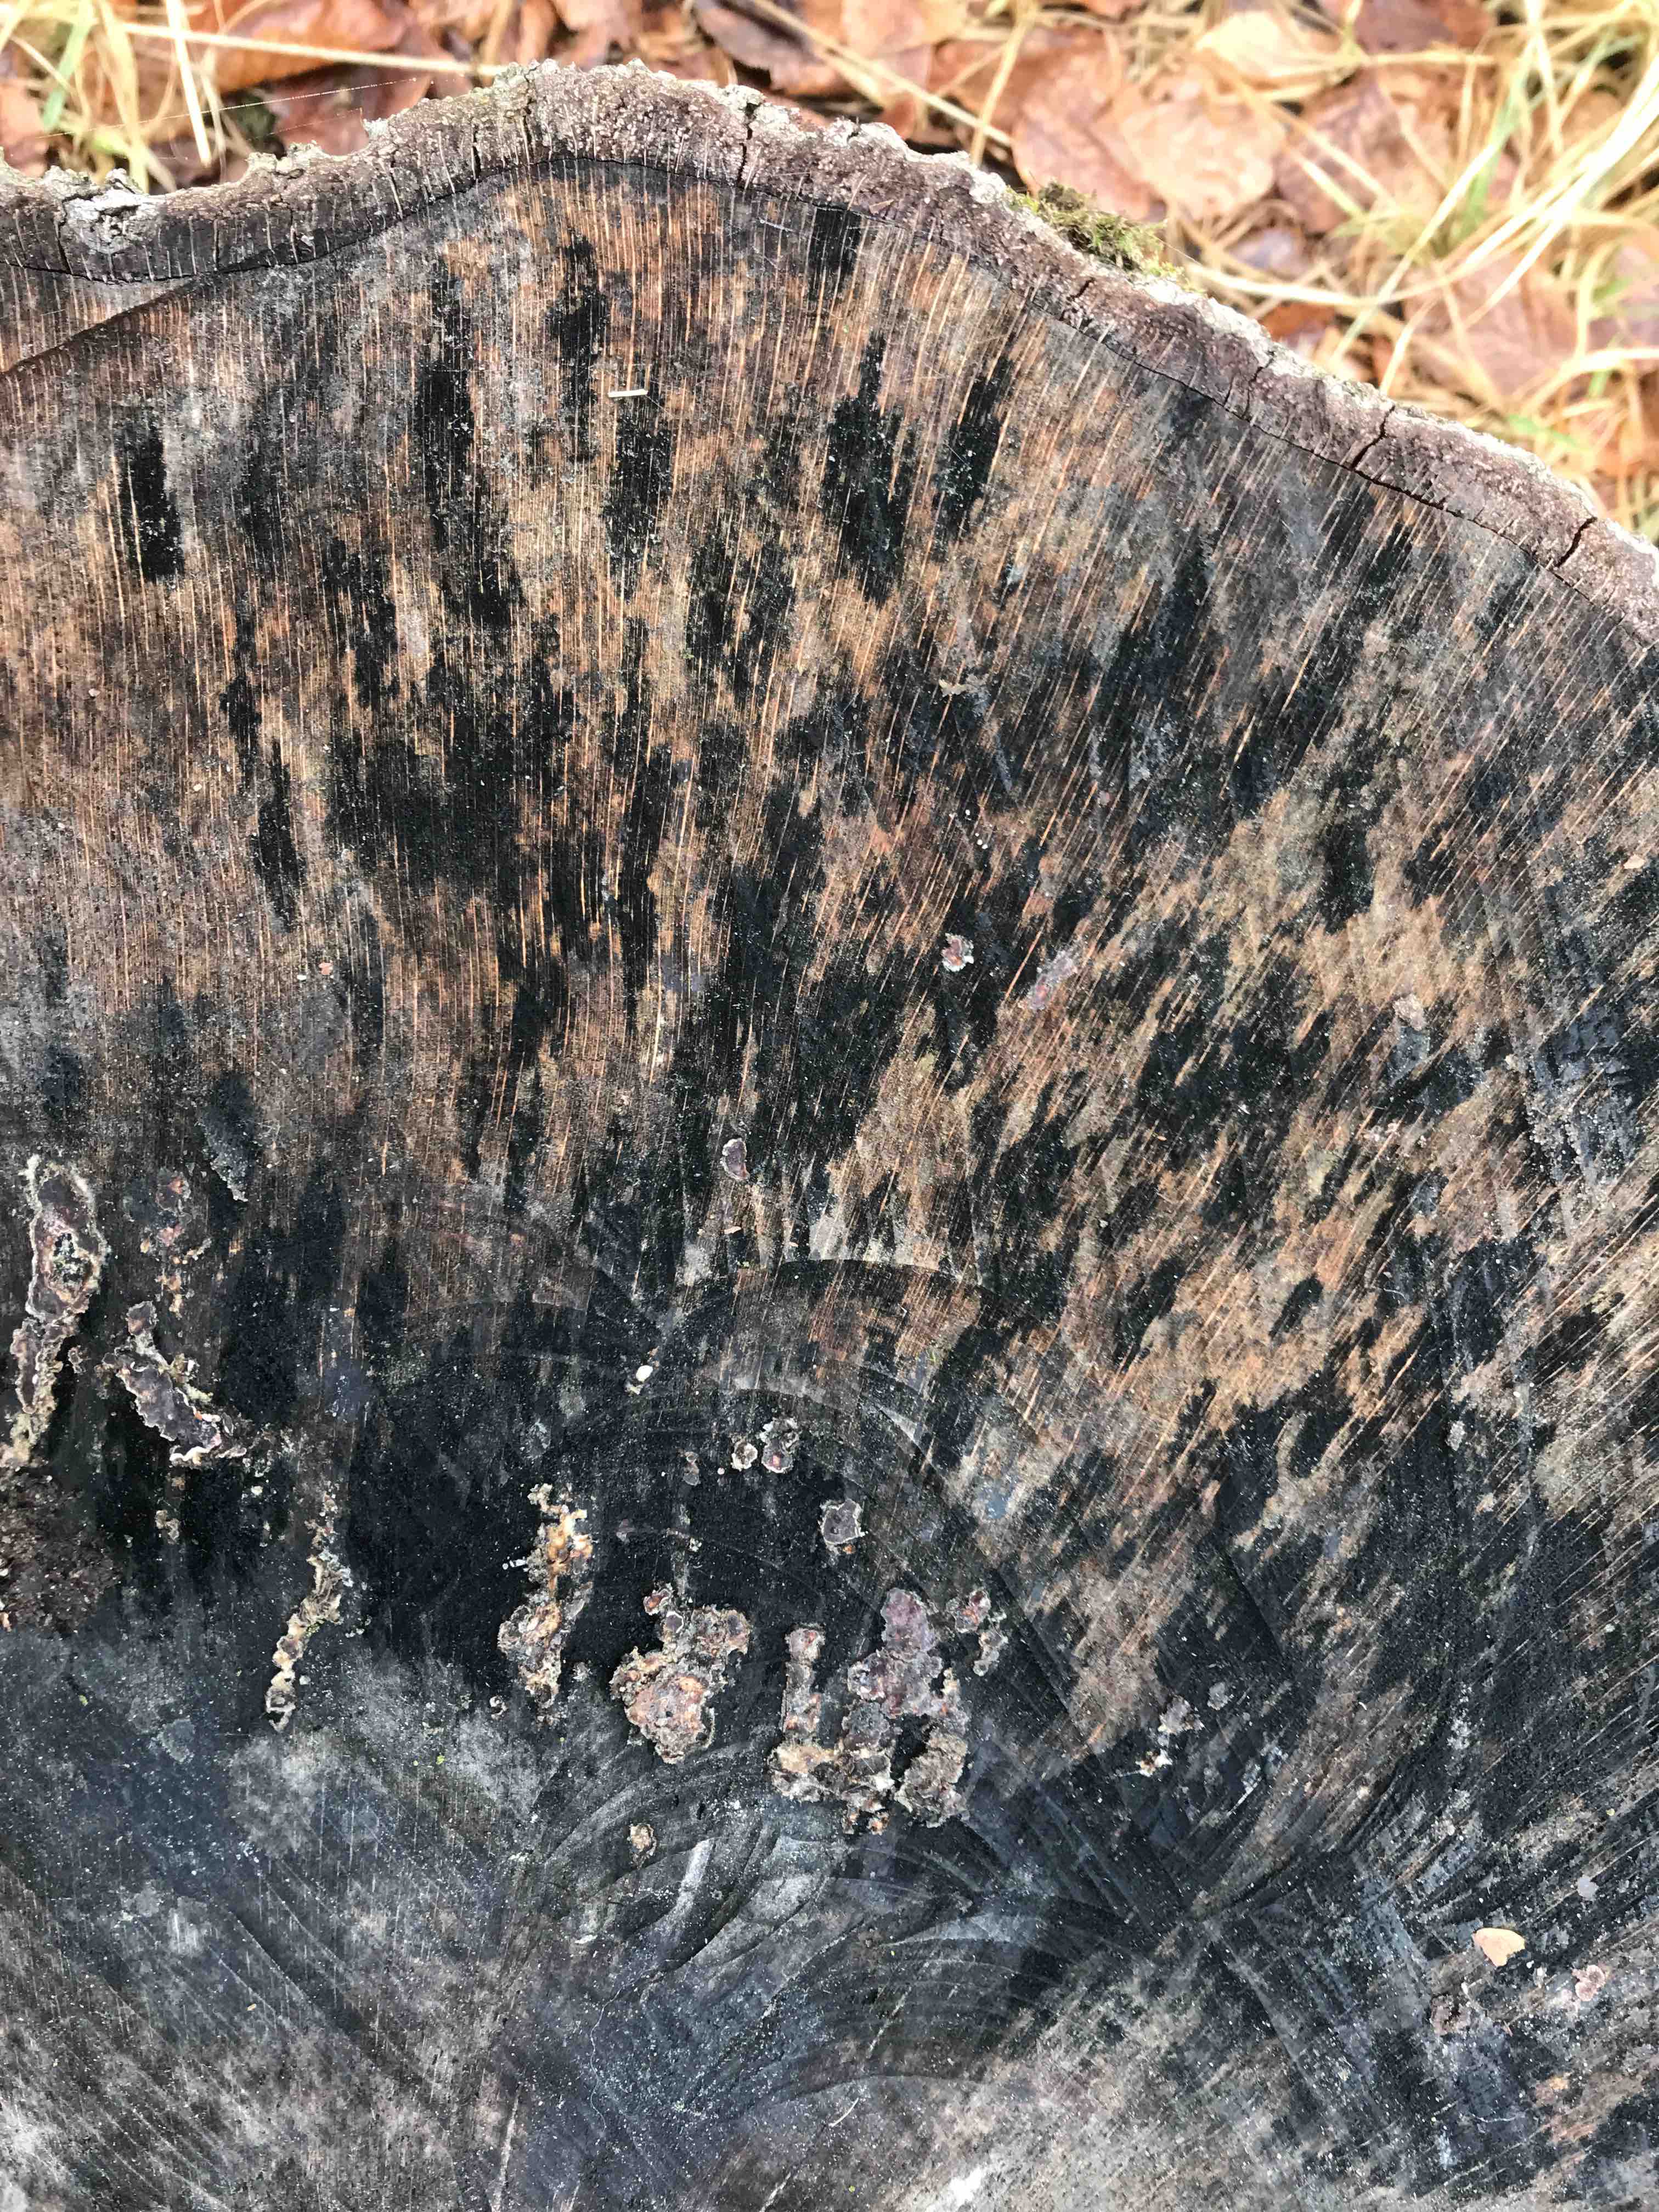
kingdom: Fungi
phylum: Ascomycota
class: Leotiomycetes
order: Helotiales
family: Helotiaceae
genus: Bispora
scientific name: Bispora pallescens
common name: måtte-snitskive
